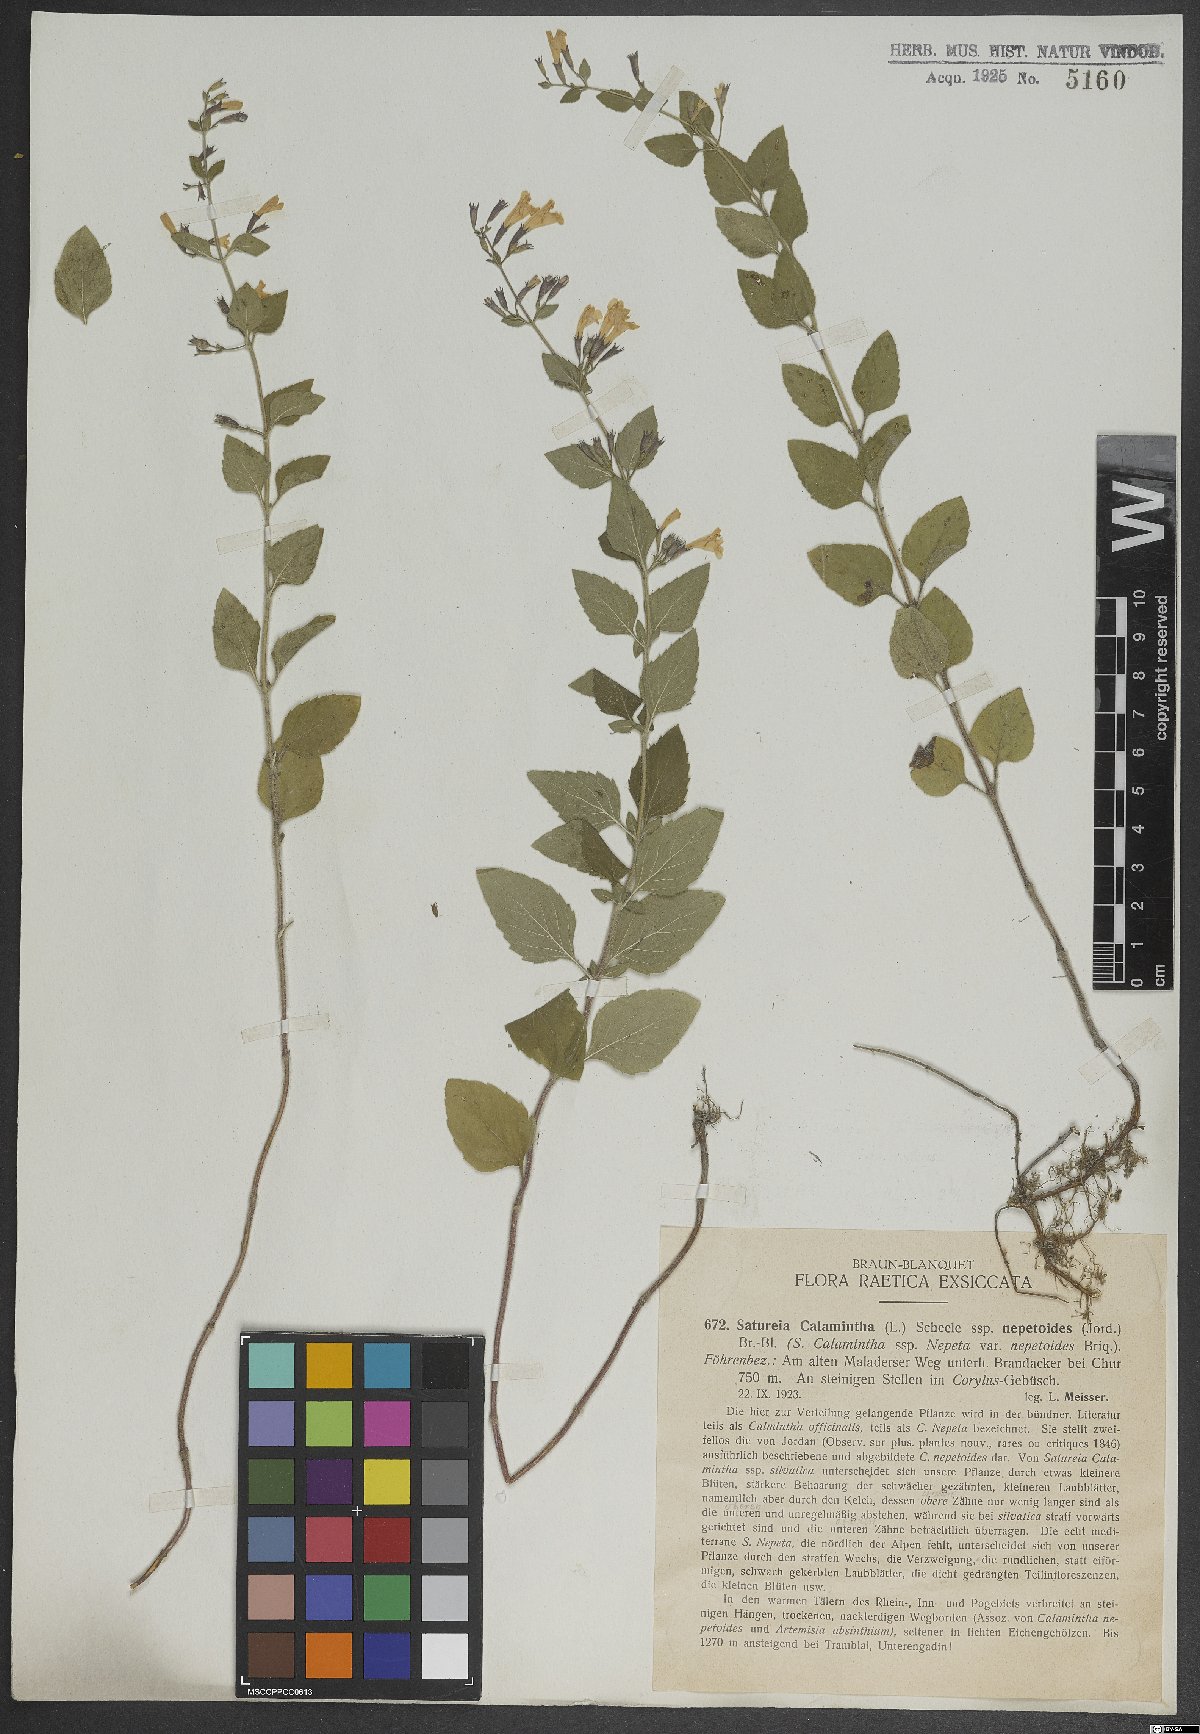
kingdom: Plantae
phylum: Tracheophyta
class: Magnoliopsida
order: Lamiales
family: Lamiaceae
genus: Clinopodium
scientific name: Clinopodium nepeta
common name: Lesser calamint
